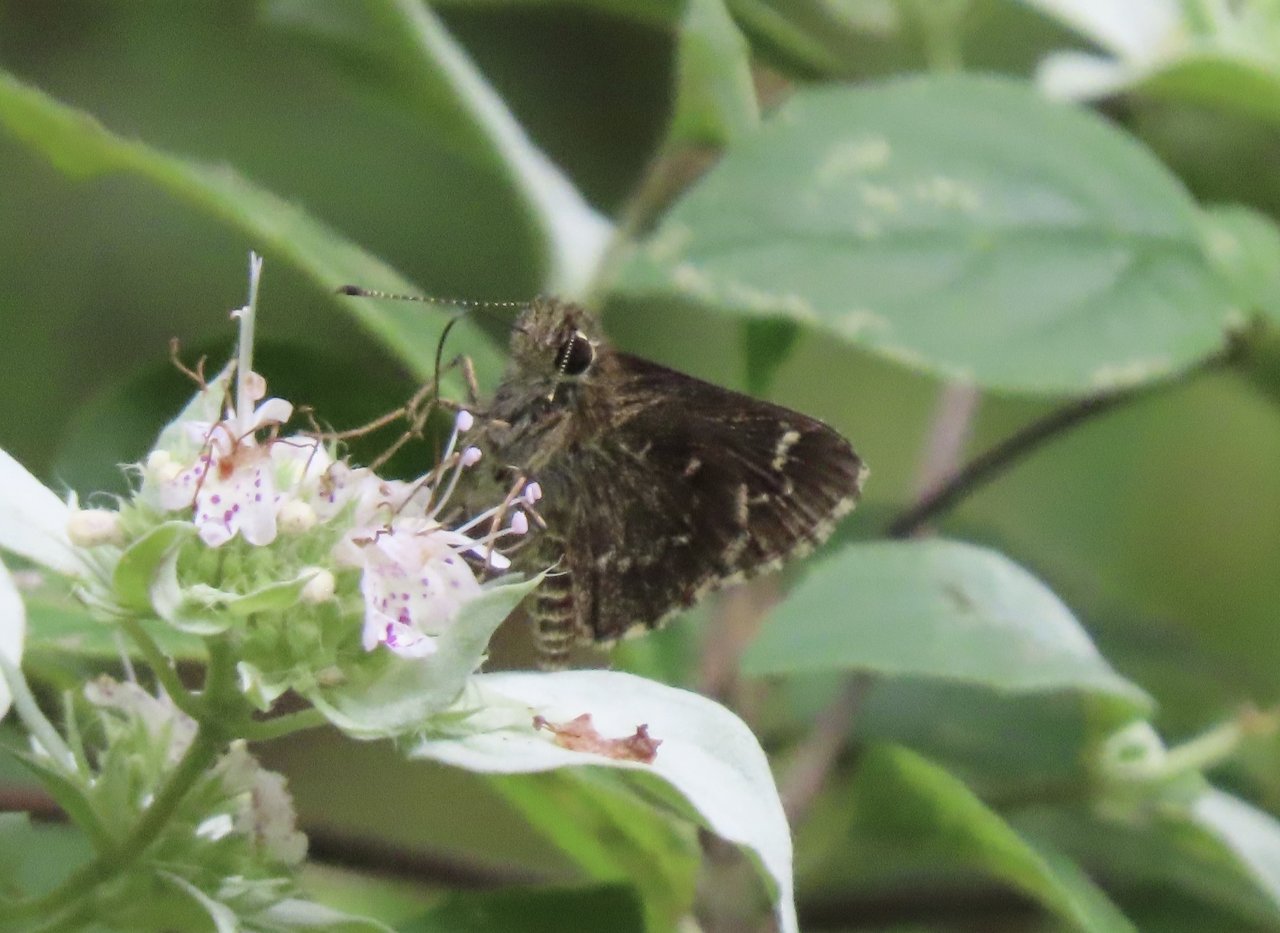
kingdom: Animalia
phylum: Arthropoda
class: Insecta
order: Lepidoptera
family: Hesperiidae
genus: Mastor
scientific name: Mastor celia
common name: Bell's Roadside-Skipper
